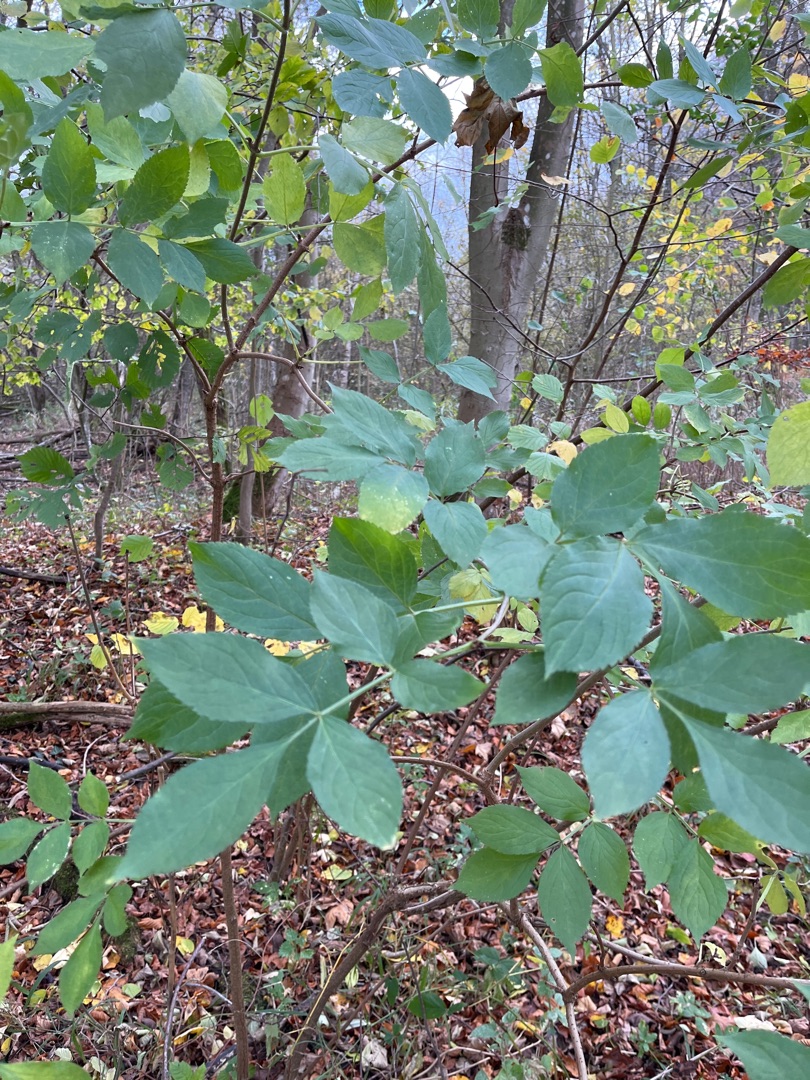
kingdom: Plantae
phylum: Tracheophyta
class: Magnoliopsida
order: Dipsacales
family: Viburnaceae
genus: Sambucus
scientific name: Sambucus nigra
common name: Almindelig hyld
